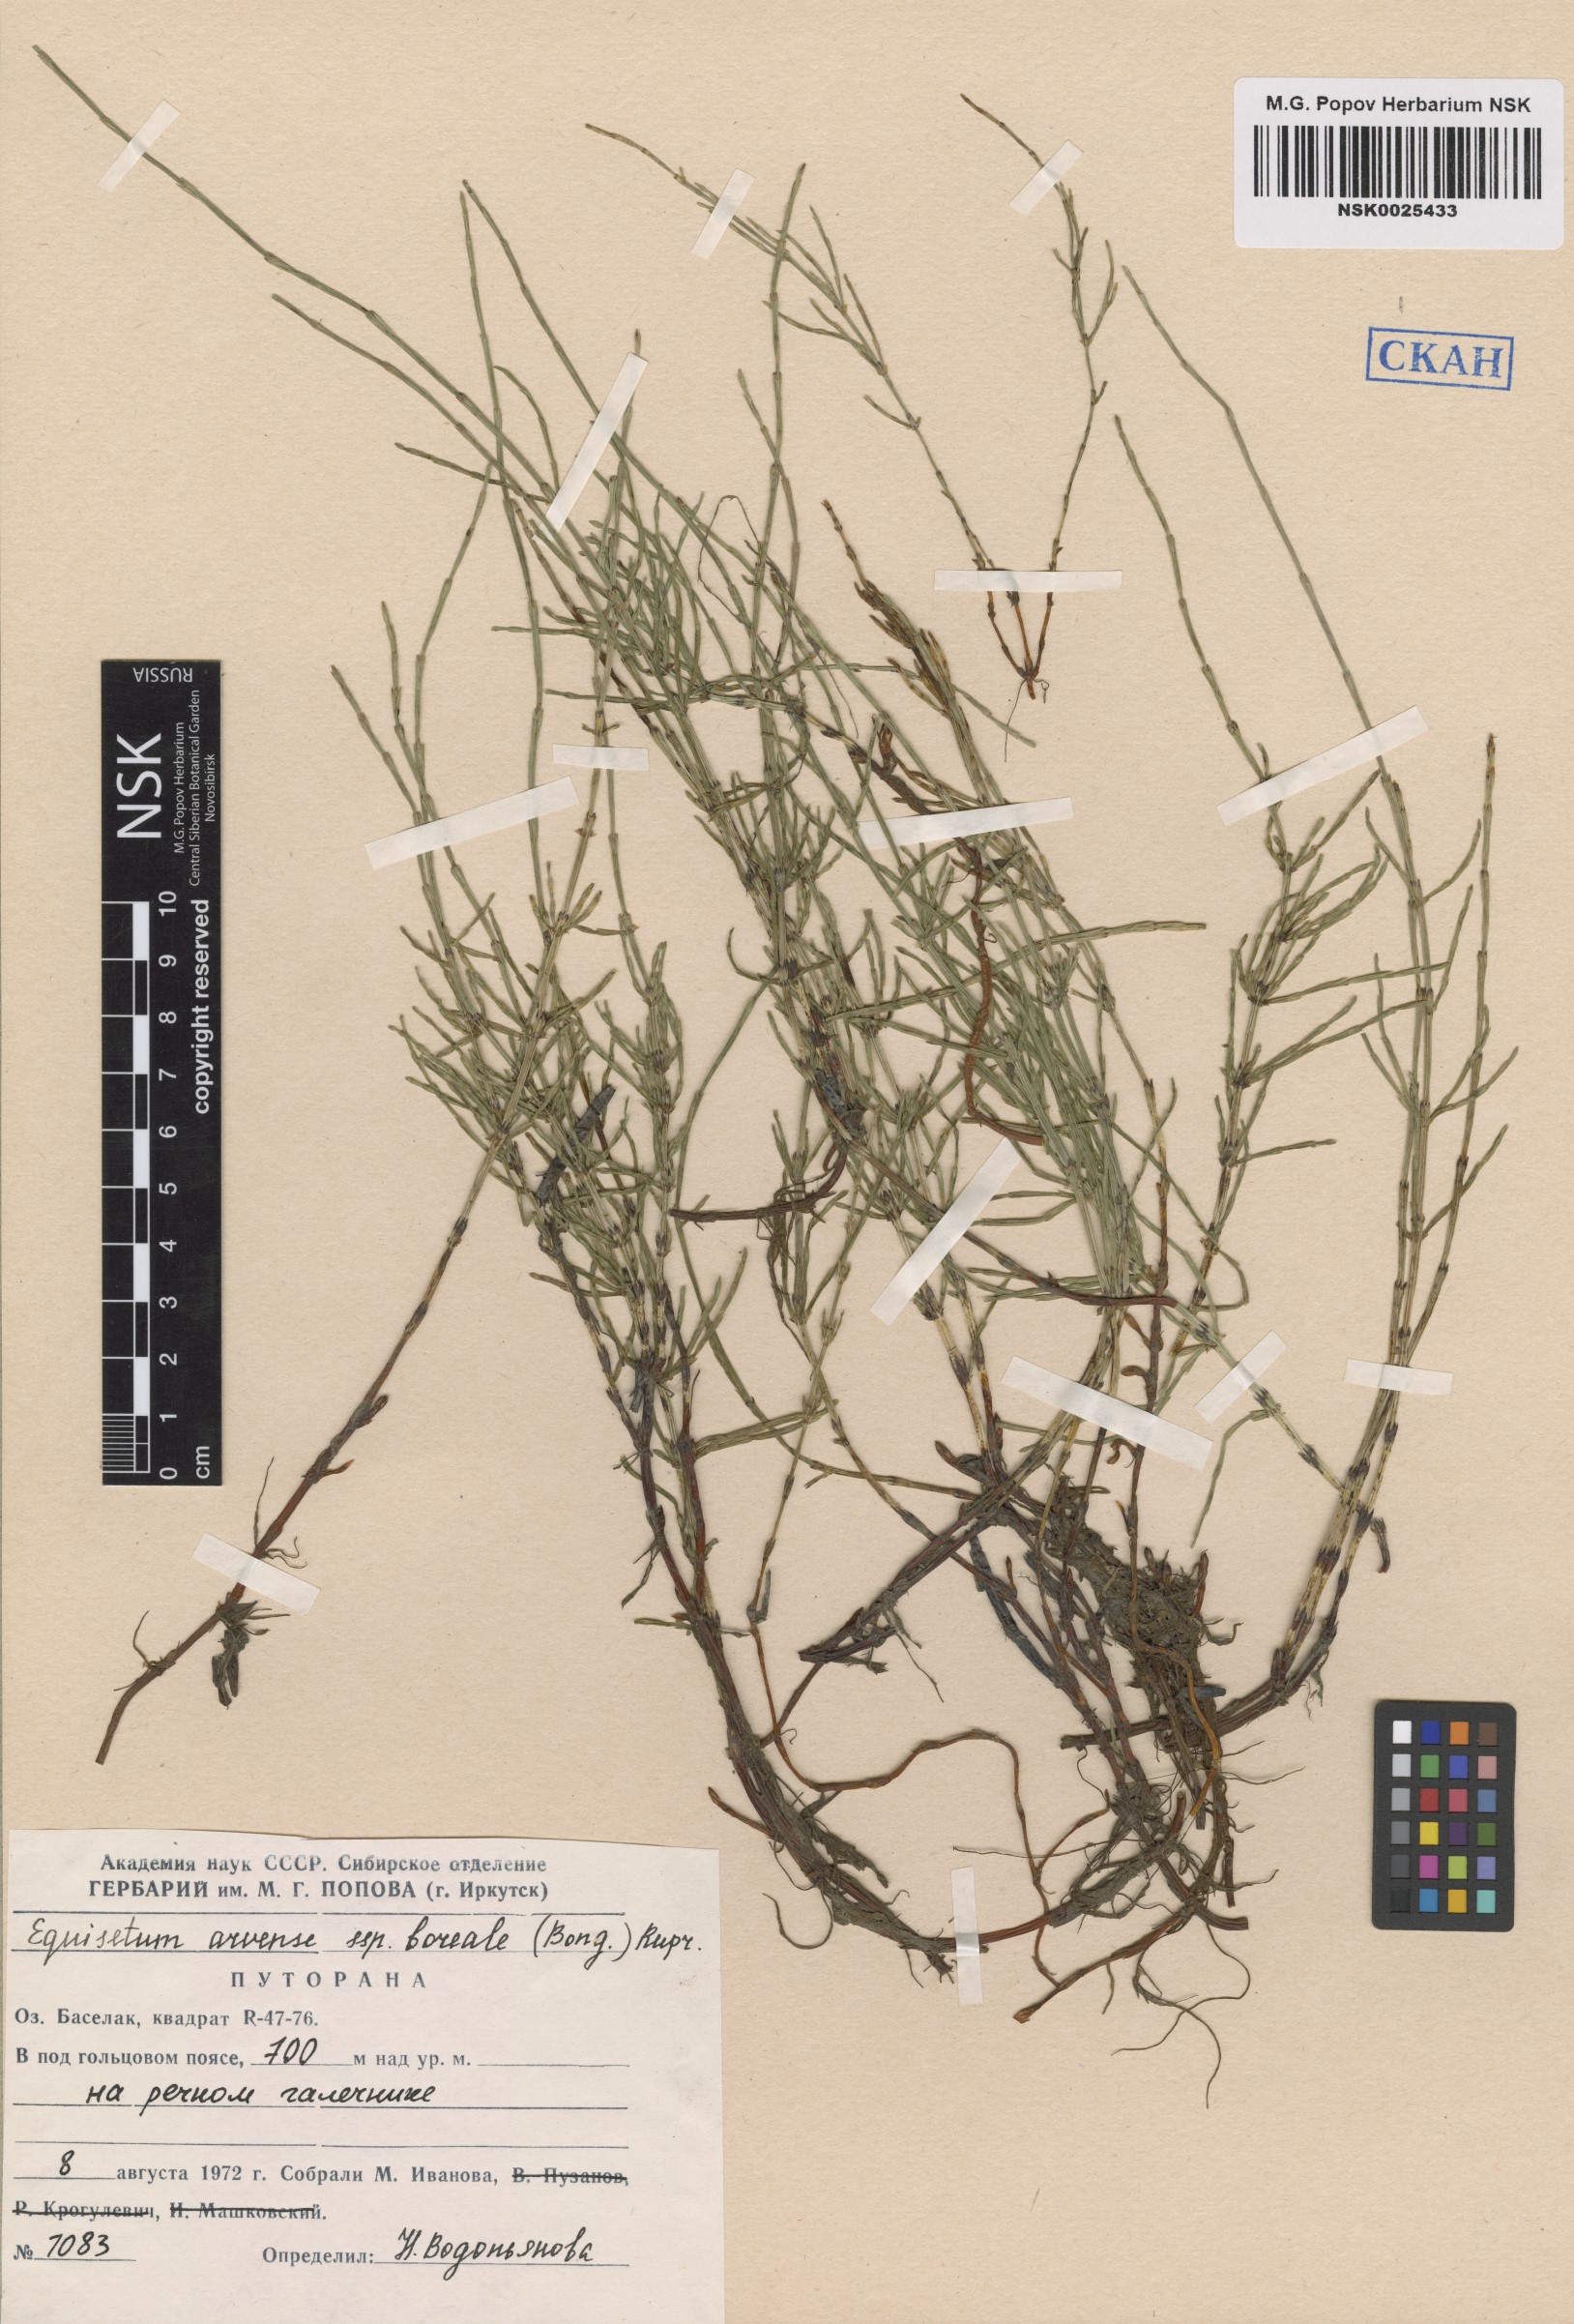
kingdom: Plantae
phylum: Tracheophyta
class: Polypodiopsida
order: Equisetales
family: Equisetaceae
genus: Equisetum
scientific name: Equisetum arvense
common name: Field horsetail
